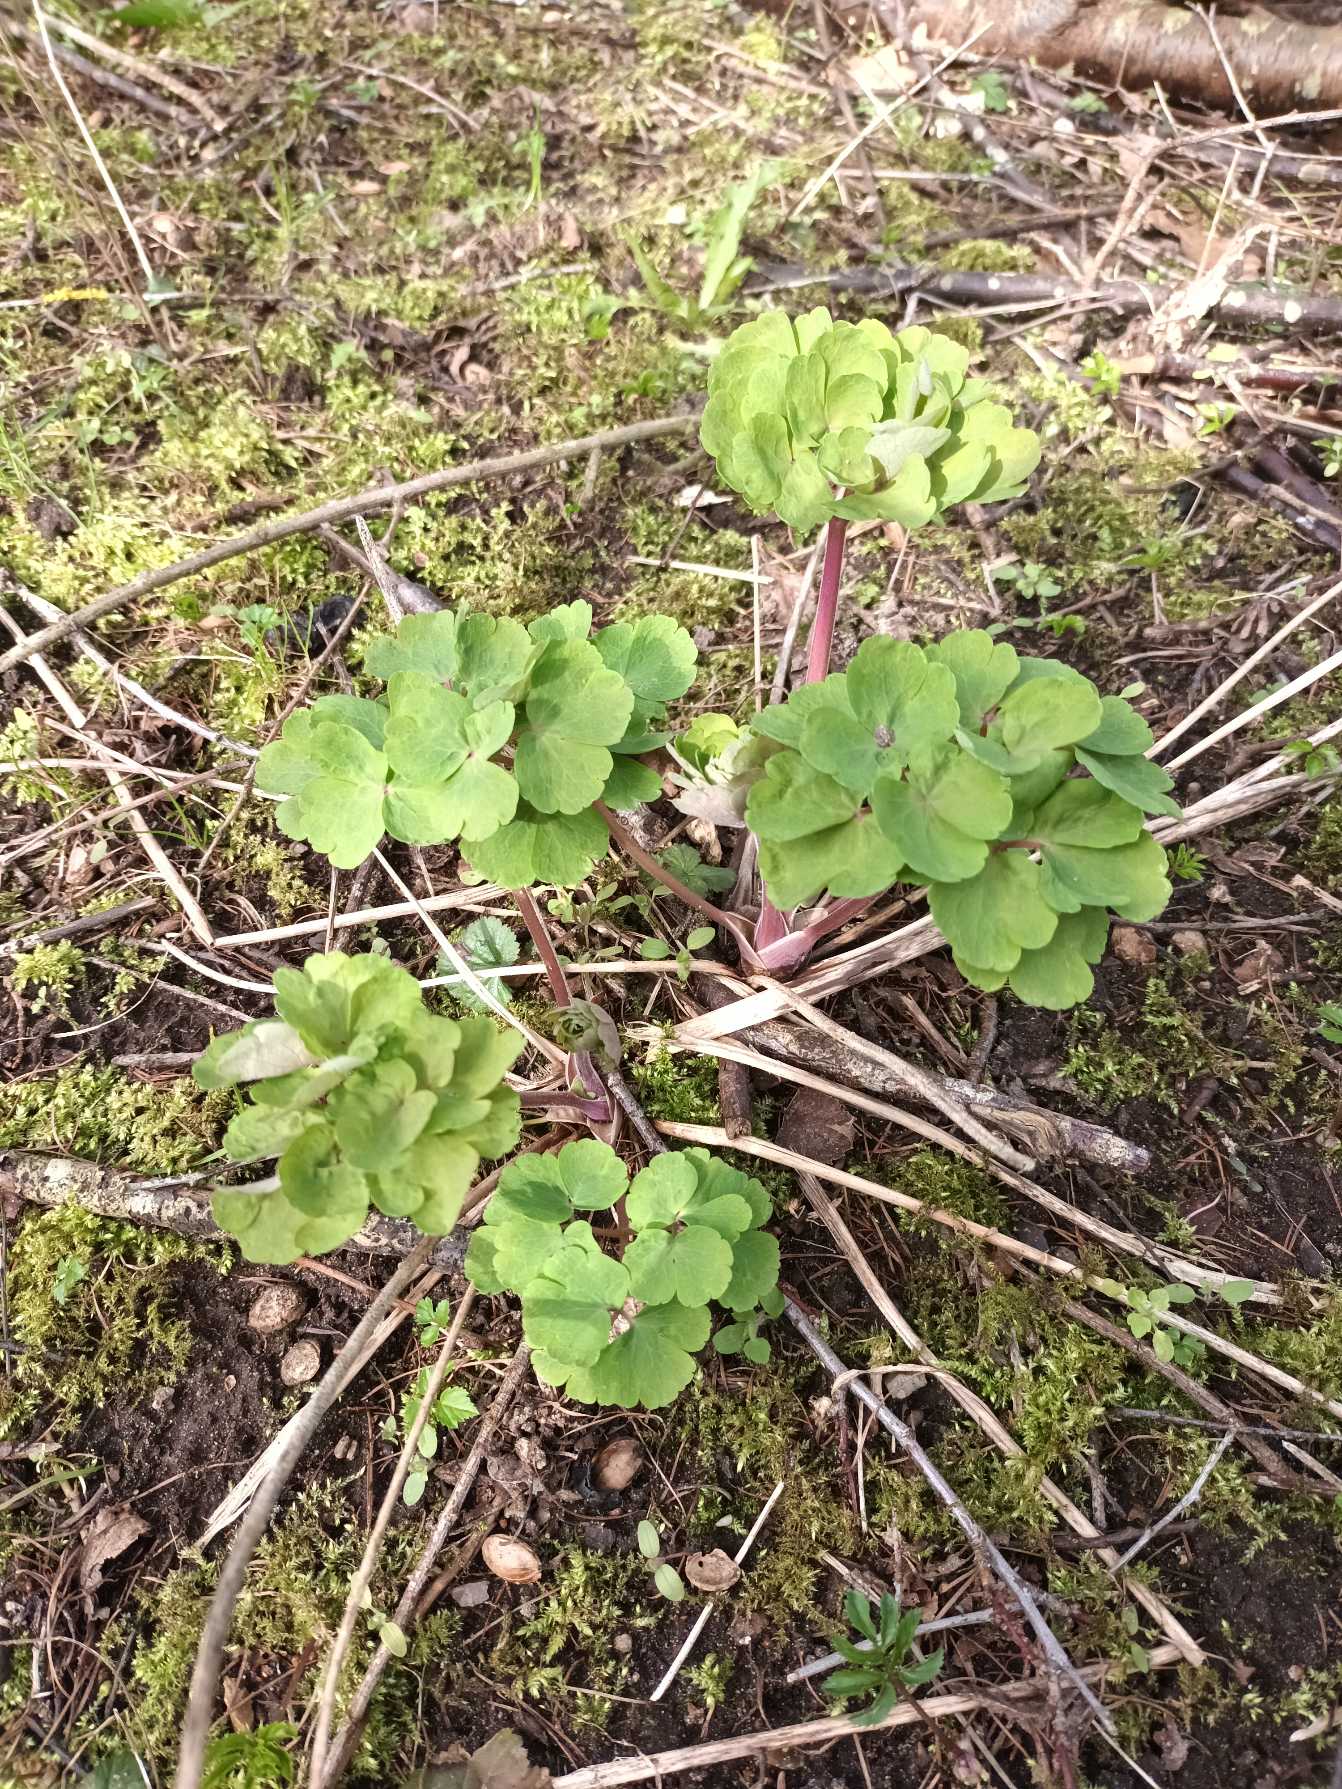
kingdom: Plantae
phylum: Tracheophyta
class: Magnoliopsida
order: Ranunculales
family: Ranunculaceae
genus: Aquilegia
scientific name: Aquilegia vulgaris
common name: Akeleje
